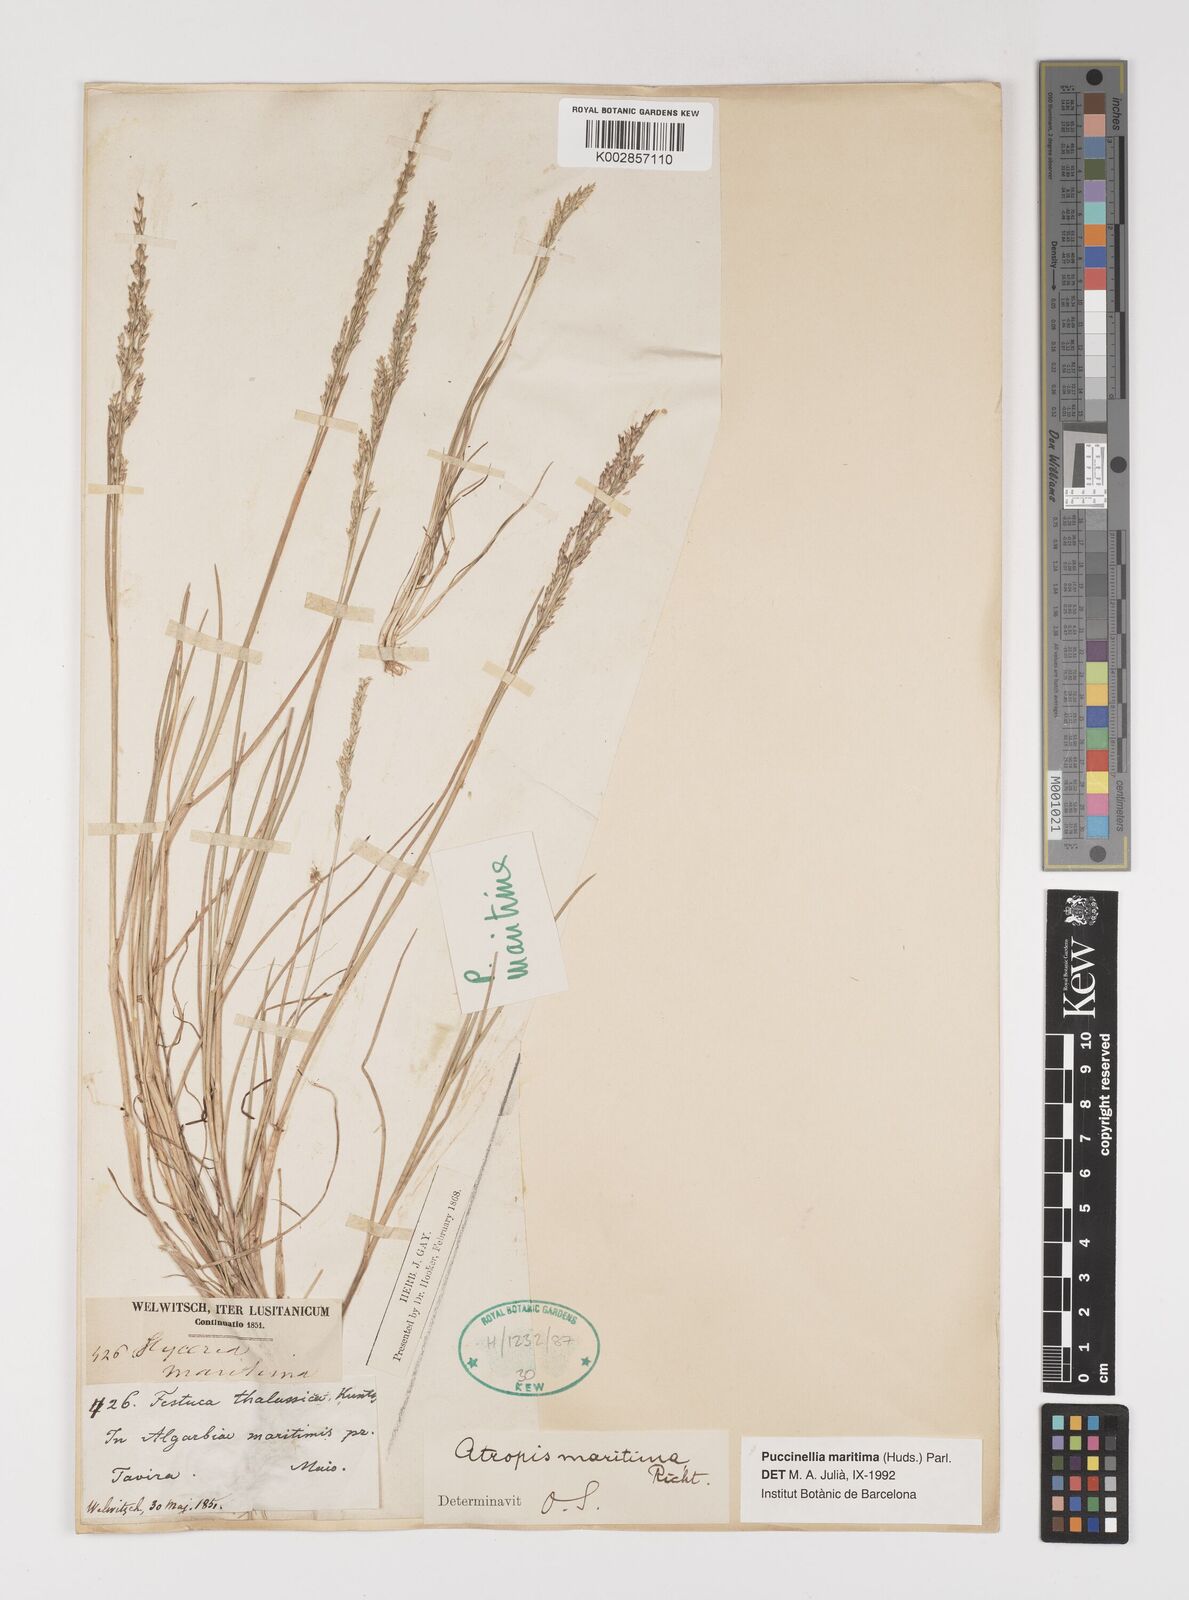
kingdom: Plantae
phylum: Tracheophyta
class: Liliopsida
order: Poales
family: Poaceae
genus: Puccinellia
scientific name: Puccinellia maritima
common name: Common saltmarsh grass
